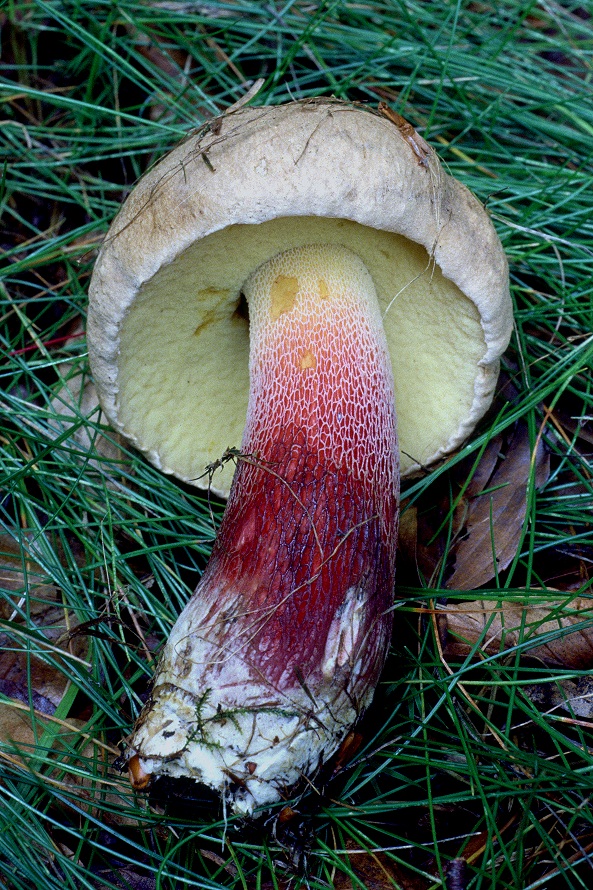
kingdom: Fungi
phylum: Basidiomycota
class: Agaricomycetes
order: Boletales
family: Boletaceae
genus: Caloboletus
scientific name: Caloboletus calopus
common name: skønfodet rørhat
